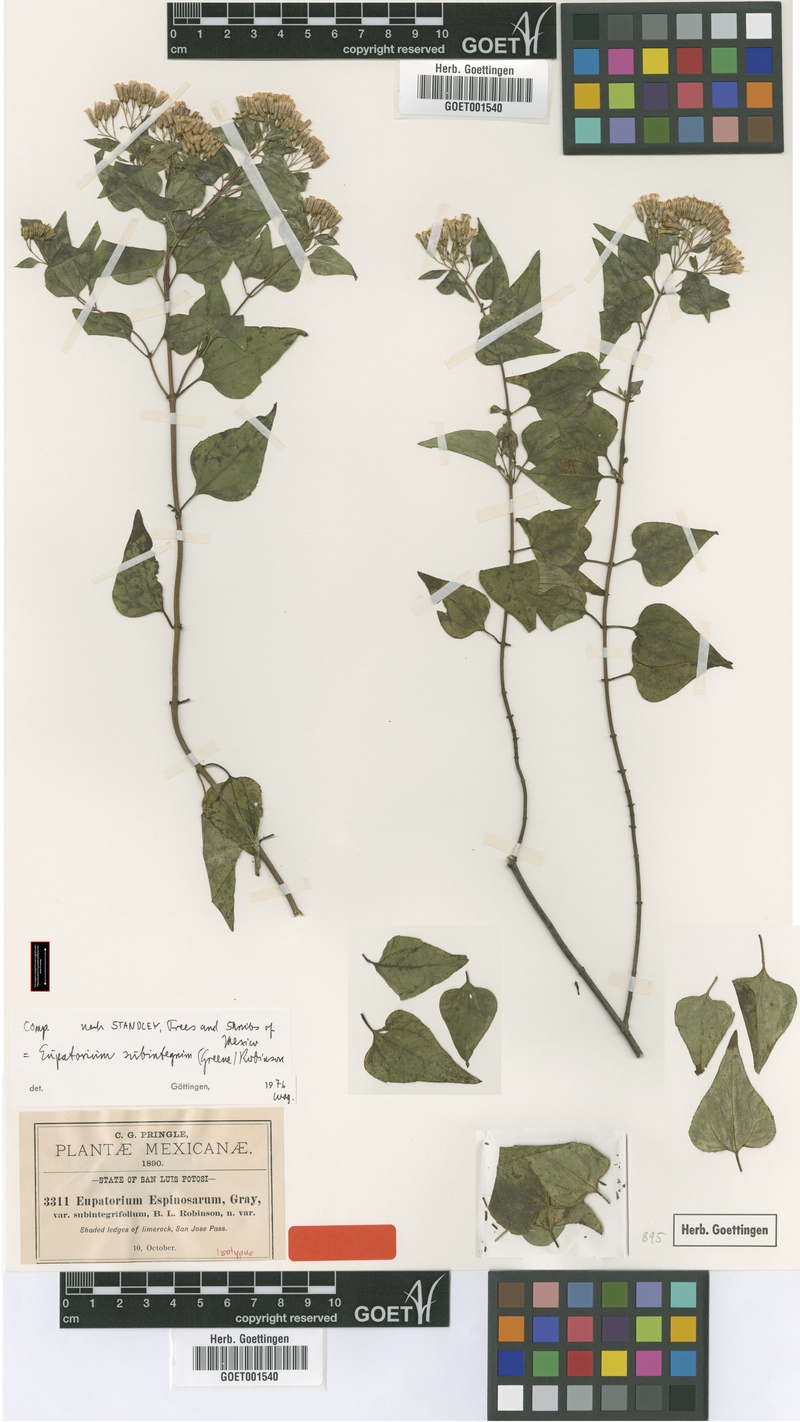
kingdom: Plantae
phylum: Tracheophyta
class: Magnoliopsida
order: Asterales
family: Asteraceae
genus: Ageratina
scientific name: Ageratina espinosarum
